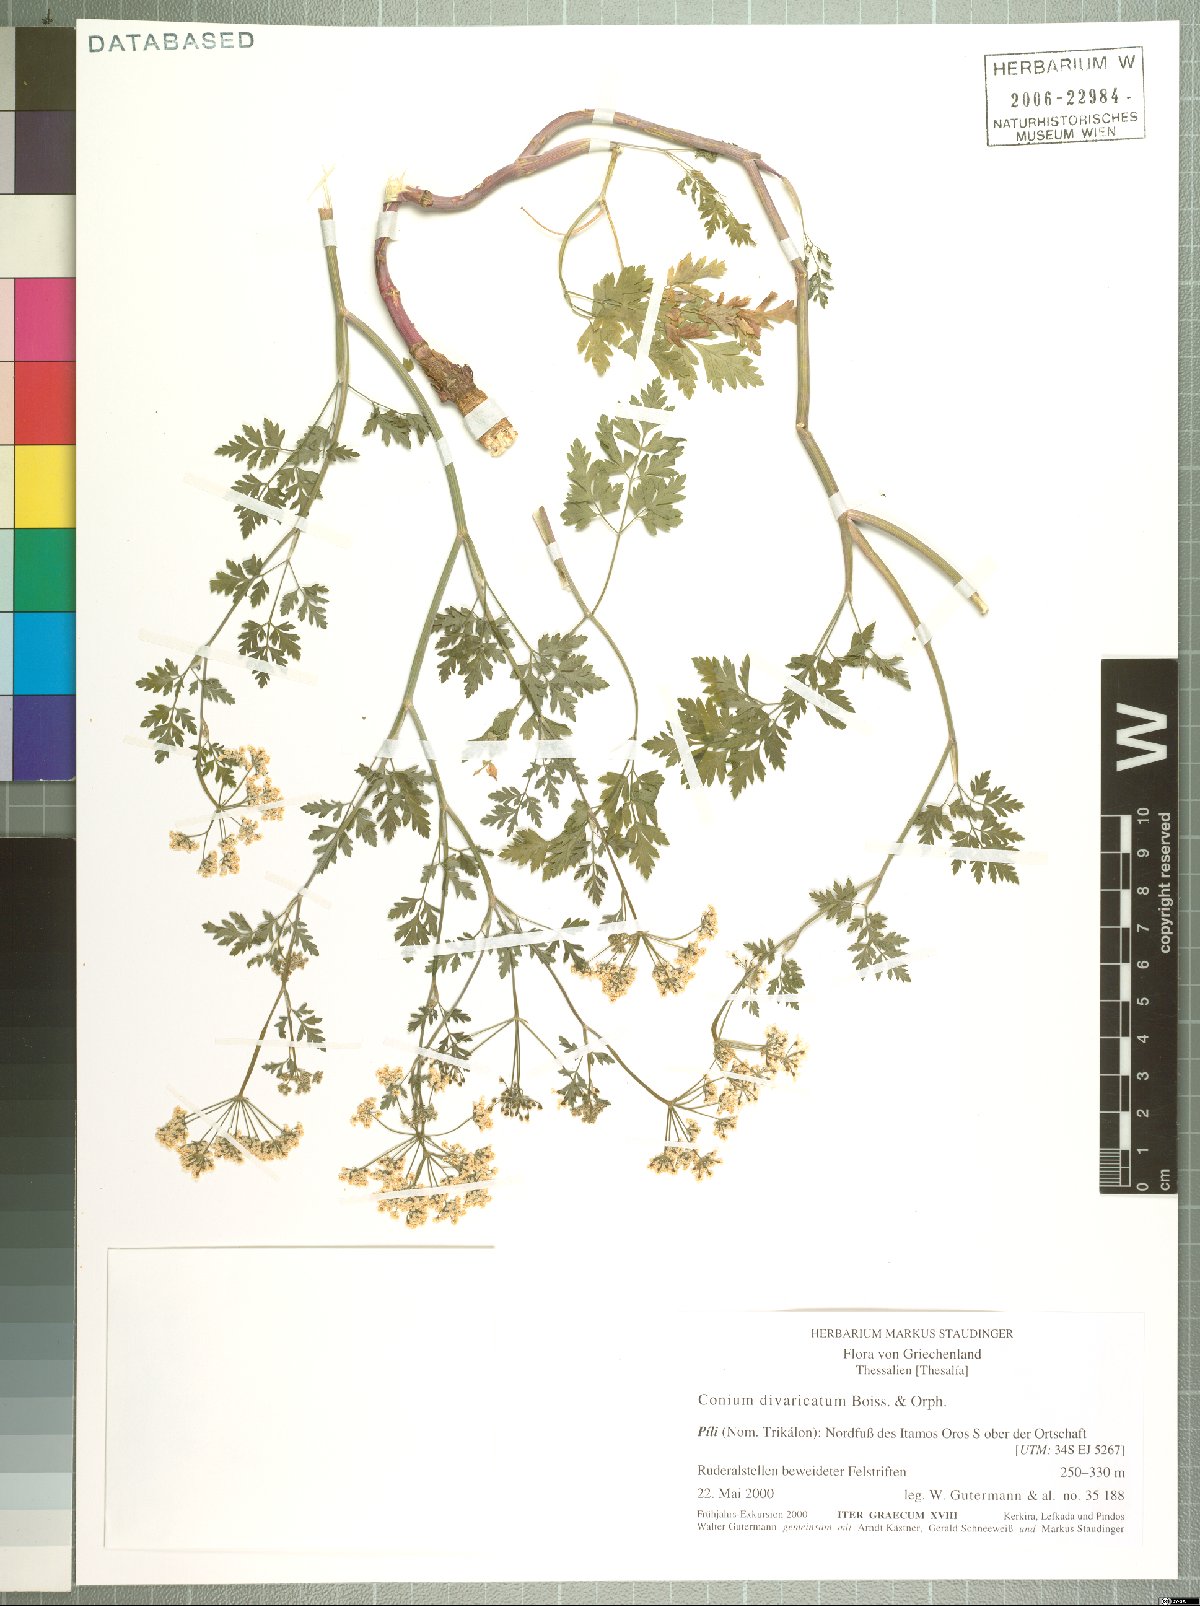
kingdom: Plantae
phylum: Tracheophyta
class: Magnoliopsida
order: Apiales
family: Apiaceae
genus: Conium
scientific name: Conium divaricatum
